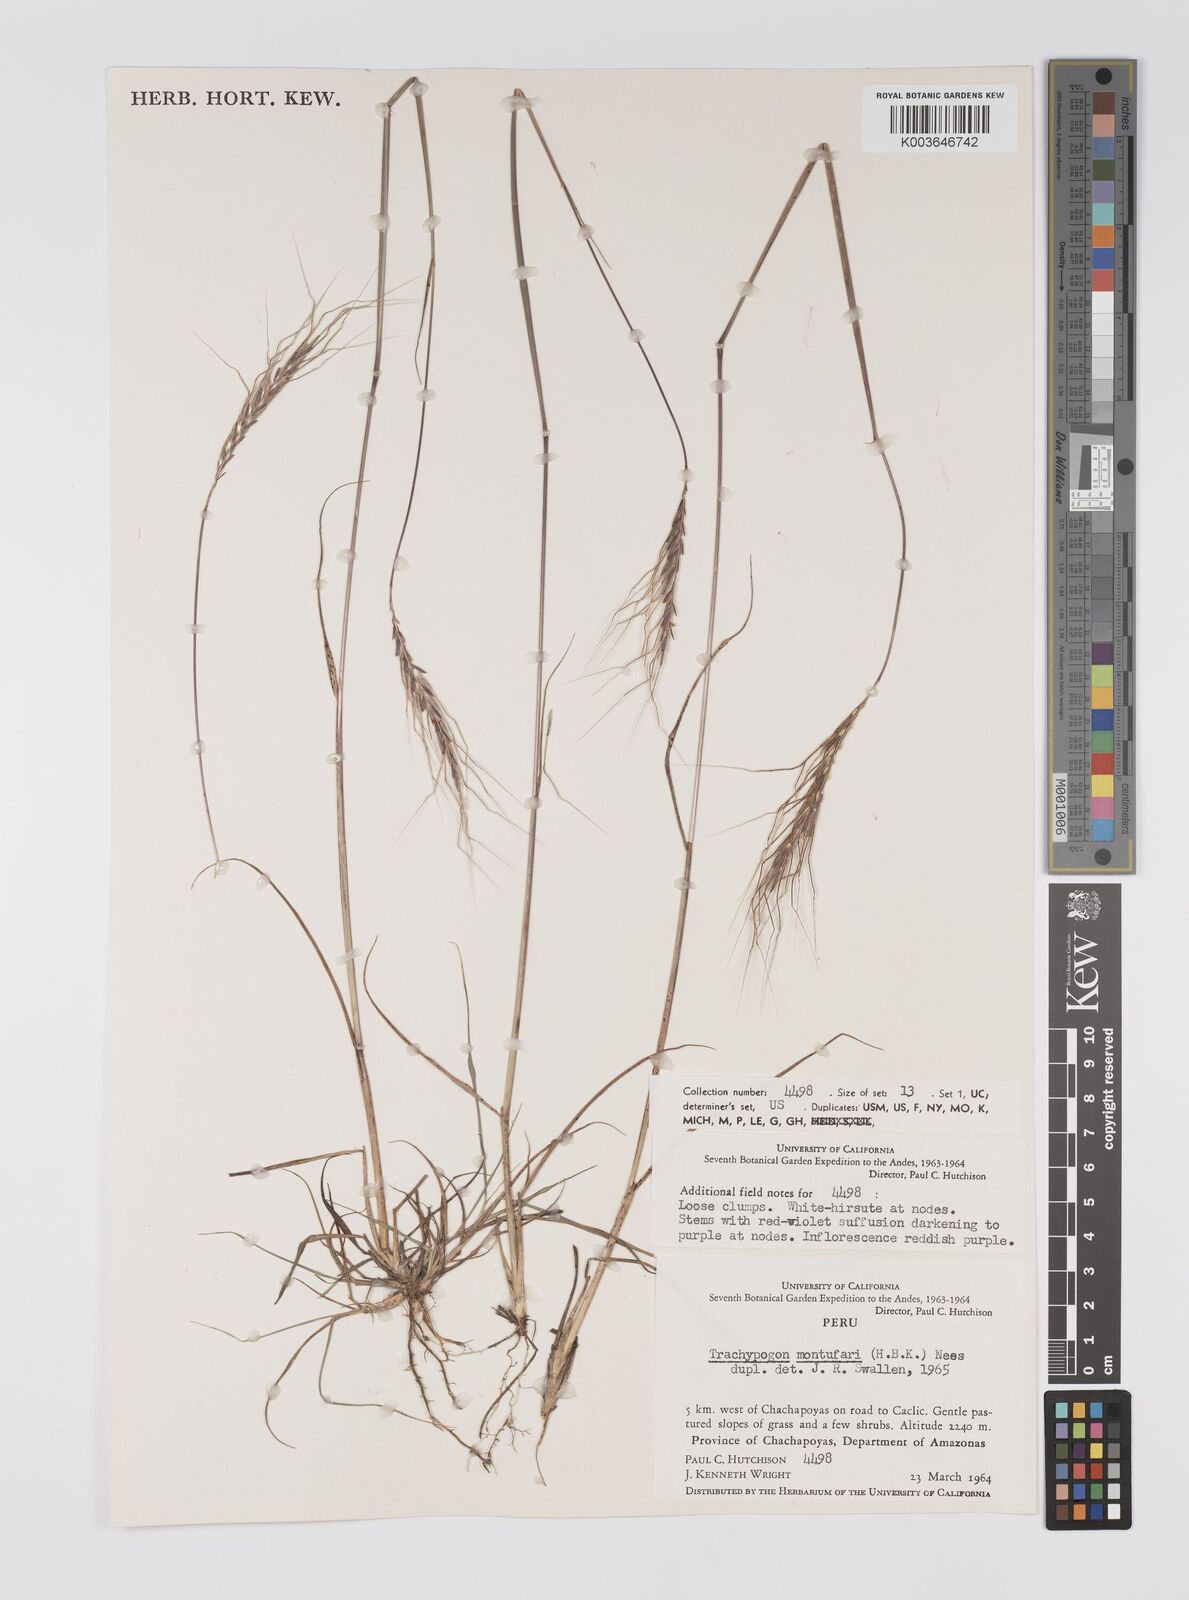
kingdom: Plantae
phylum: Tracheophyta
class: Liliopsida
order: Poales
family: Poaceae
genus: Trachypogon
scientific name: Trachypogon spicatus
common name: Crinkle-awn
